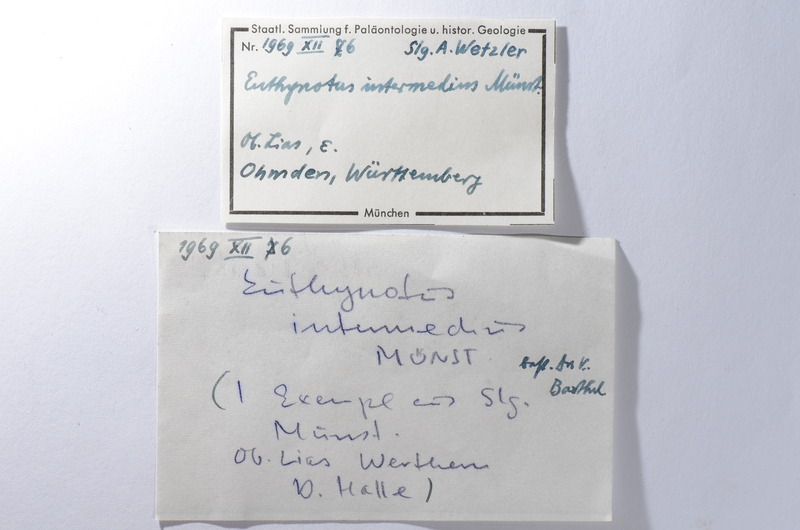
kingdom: Animalia
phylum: Chordata
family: Pachycormidae
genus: Euthynotus
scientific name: Euthynotus intermedius
